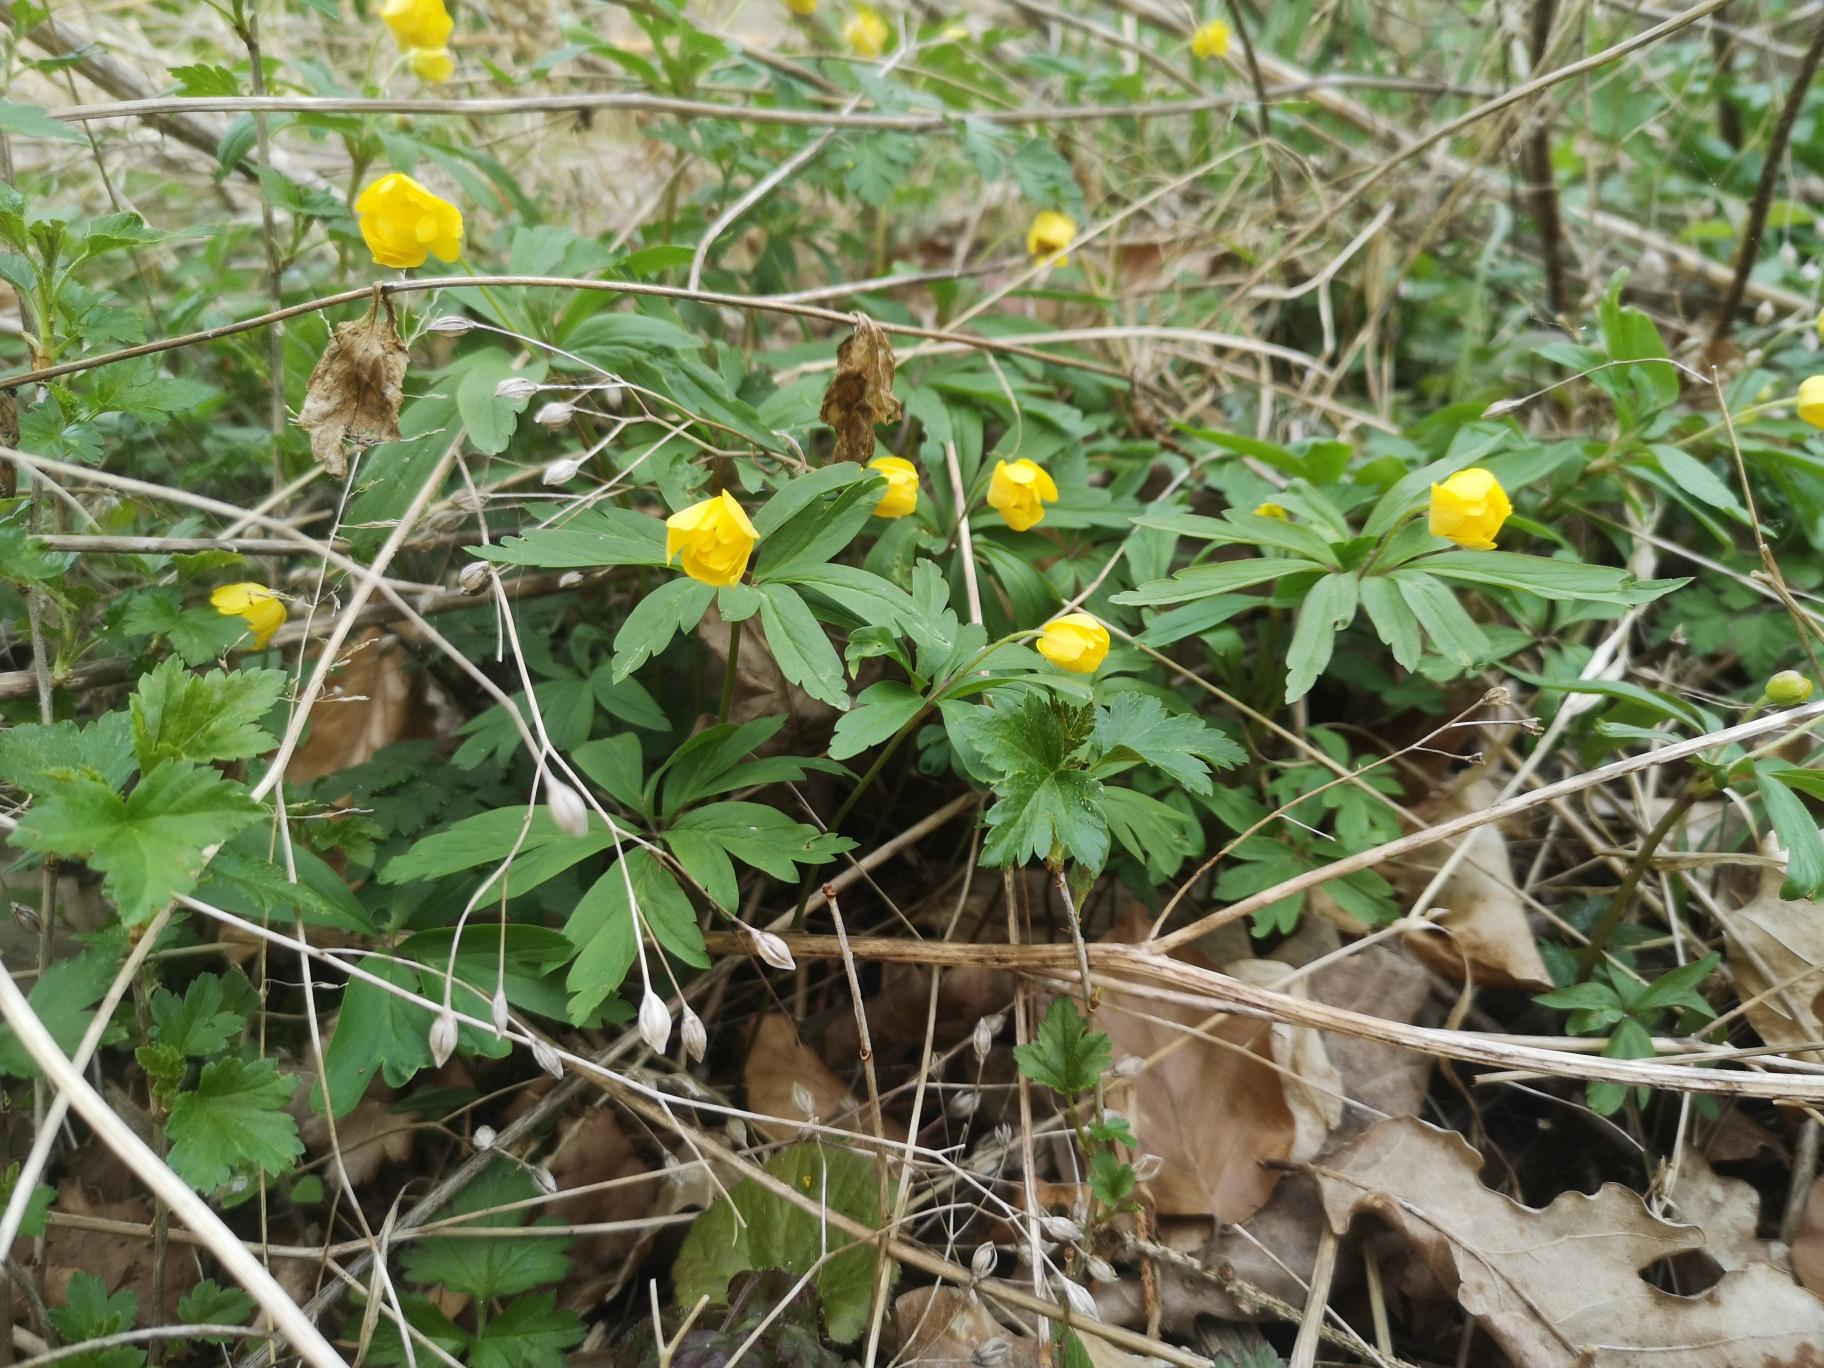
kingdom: Plantae
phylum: Tracheophyta
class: Magnoliopsida
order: Ranunculales
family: Ranunculaceae
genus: Anemone
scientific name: Anemone ranunculoides
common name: Gul anemone
